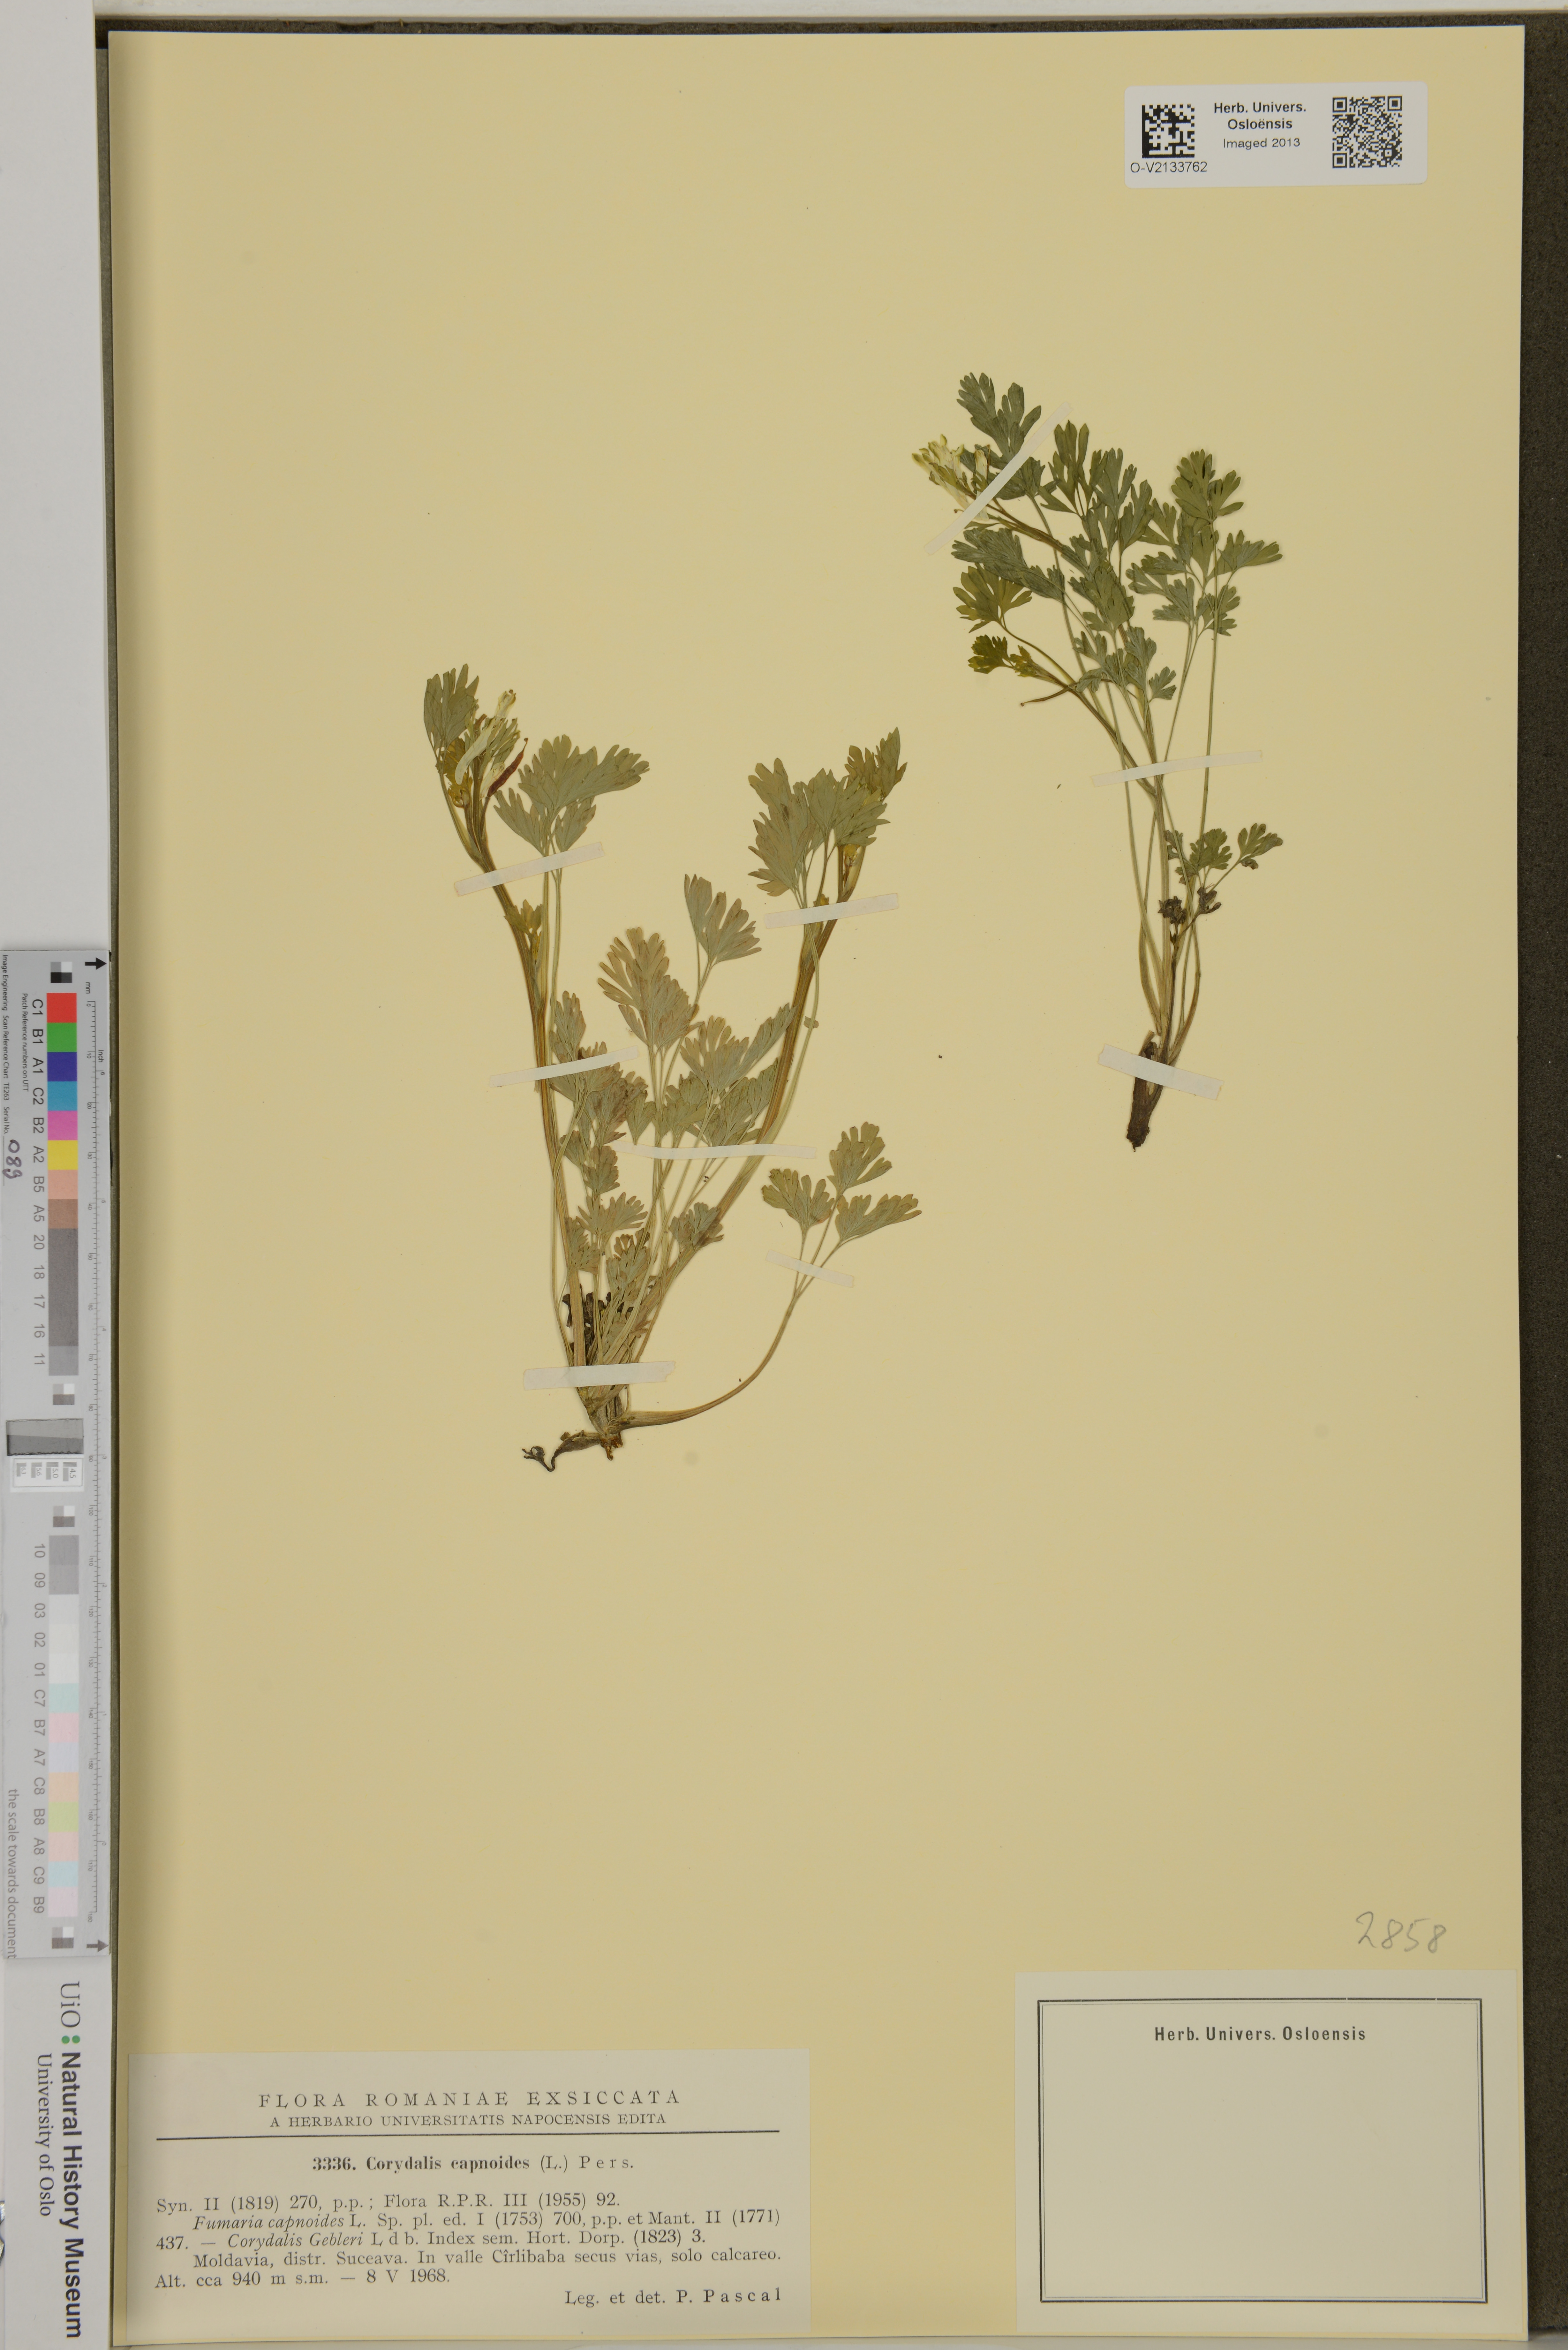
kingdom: Plantae
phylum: Tracheophyta
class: Magnoliopsida
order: Ranunculales
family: Papaveraceae
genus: Corydalis
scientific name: Corydalis capnoides
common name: Beaked corydalis
